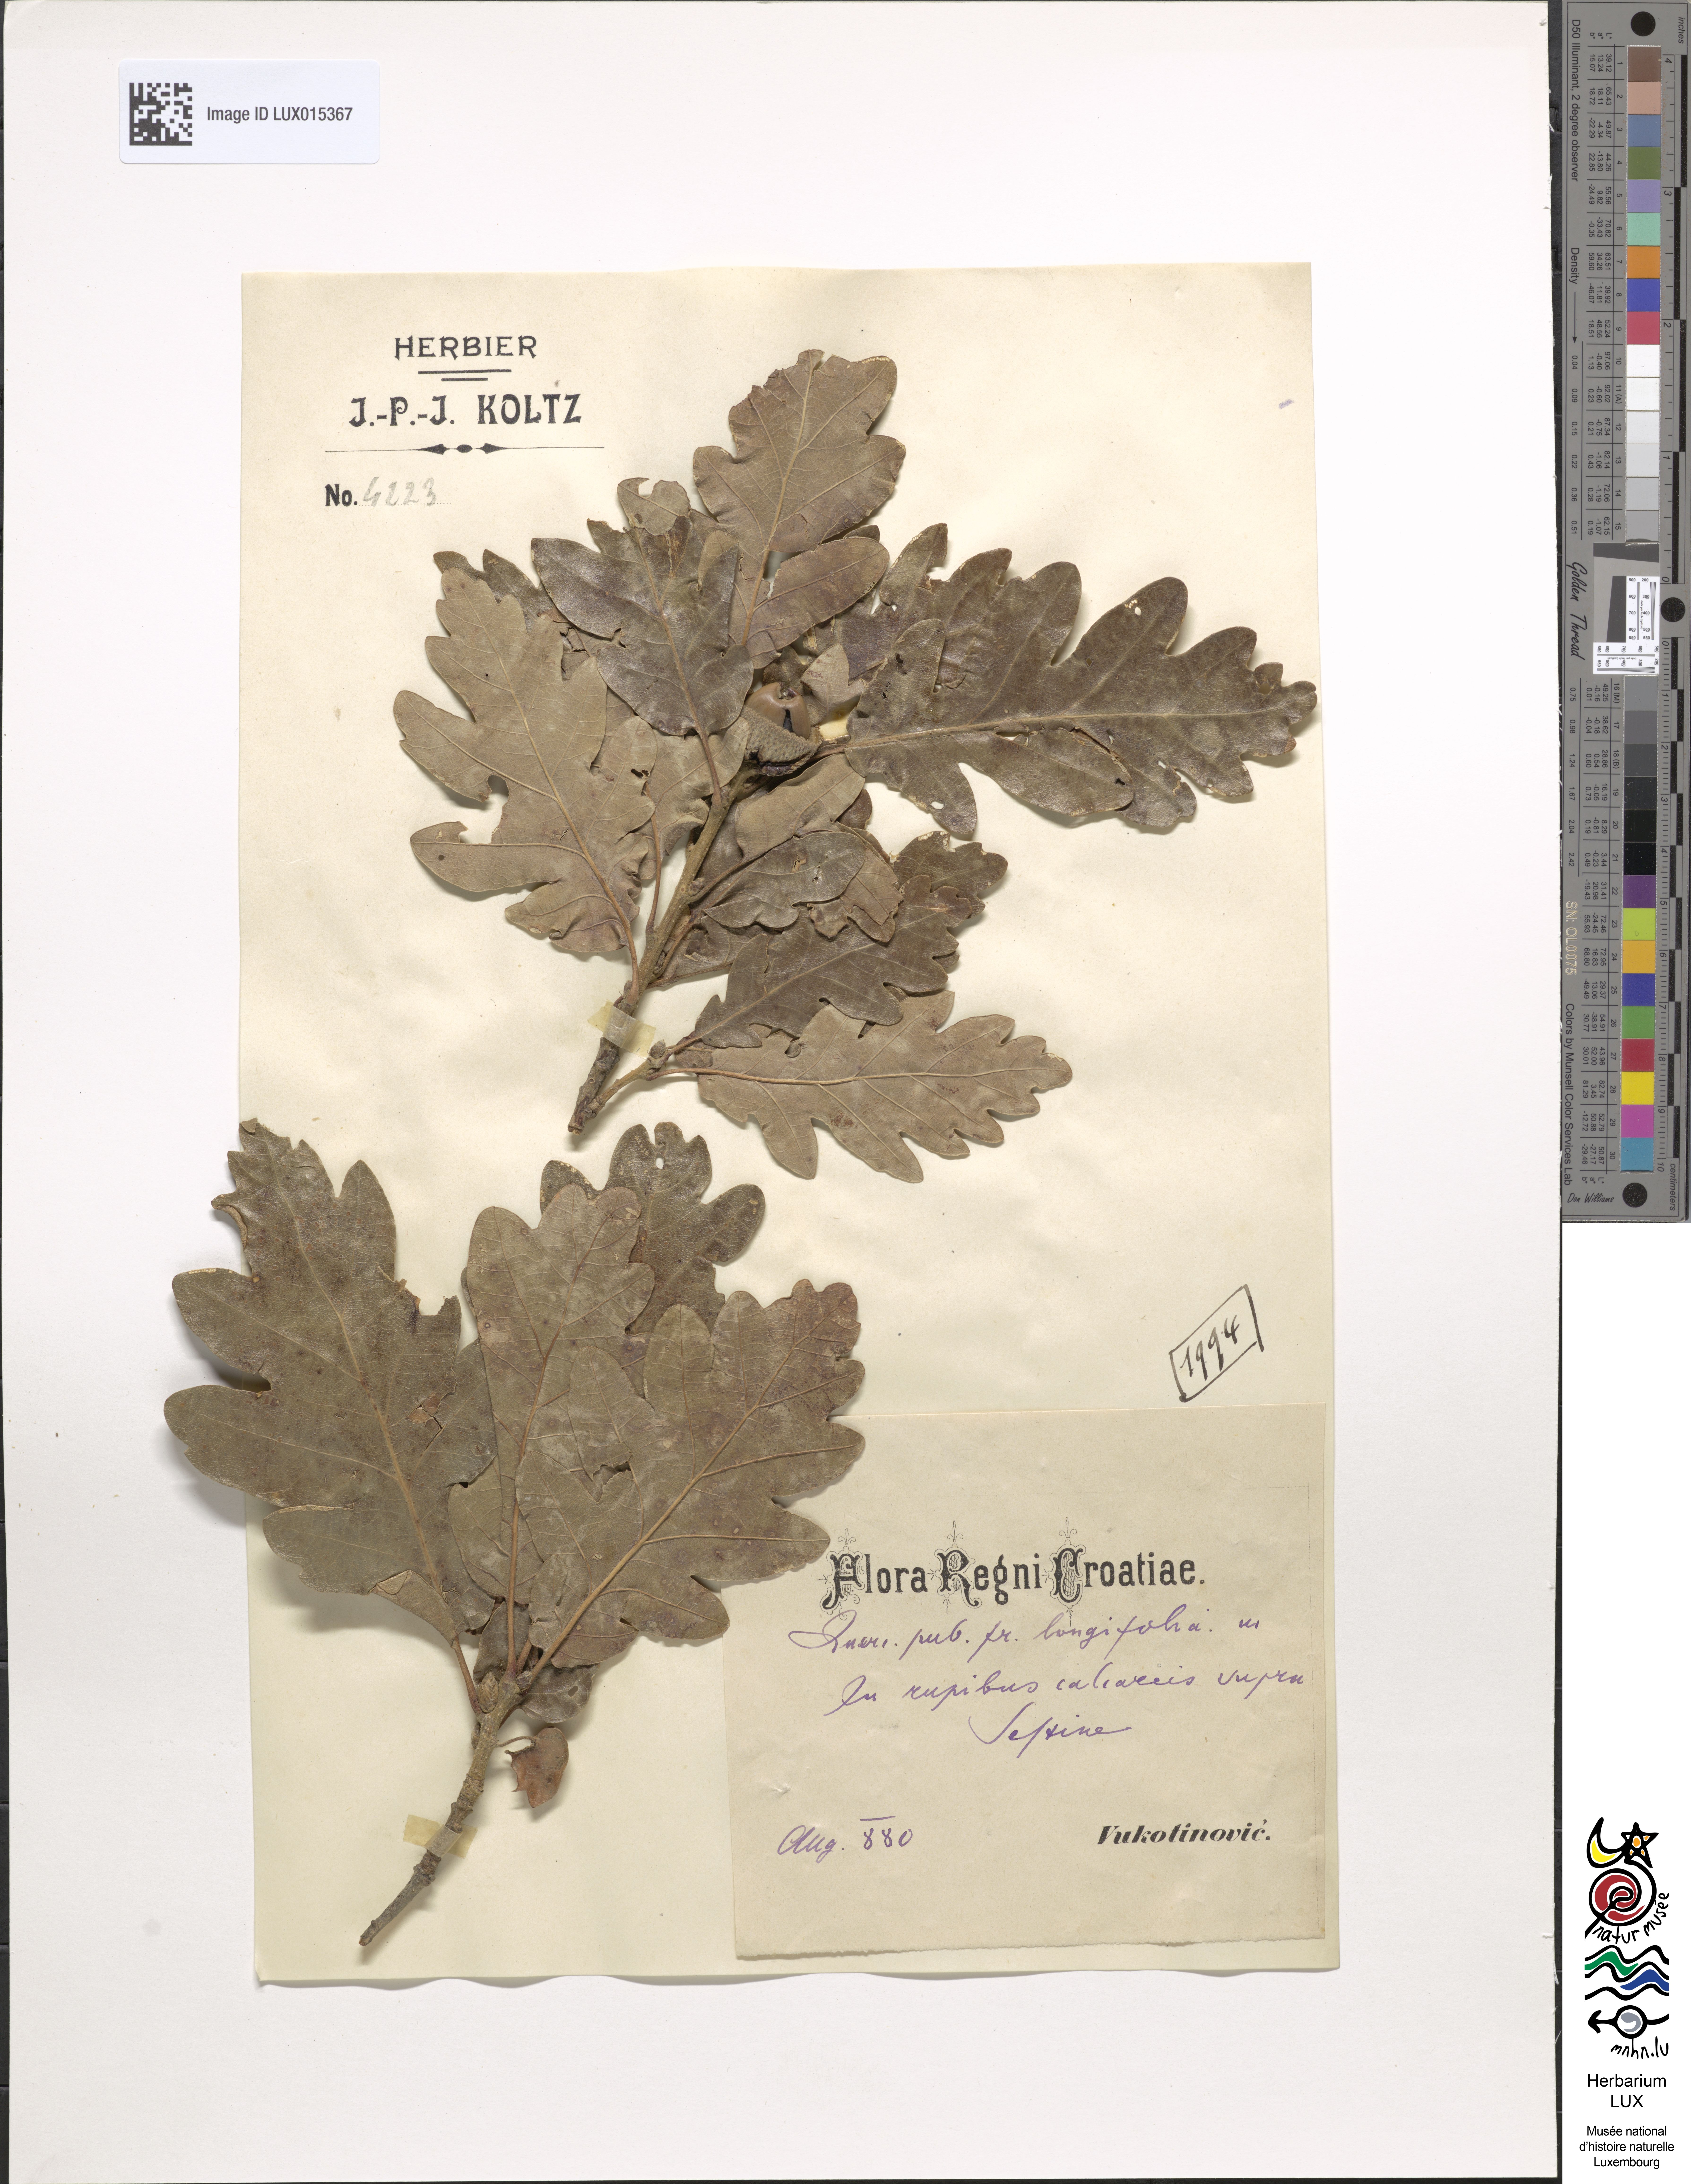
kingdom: Plantae
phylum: Tracheophyta
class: Magnoliopsida
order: Fagales
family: Fagaceae
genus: Quercus
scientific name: Quercus pubescens
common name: Downy oak
